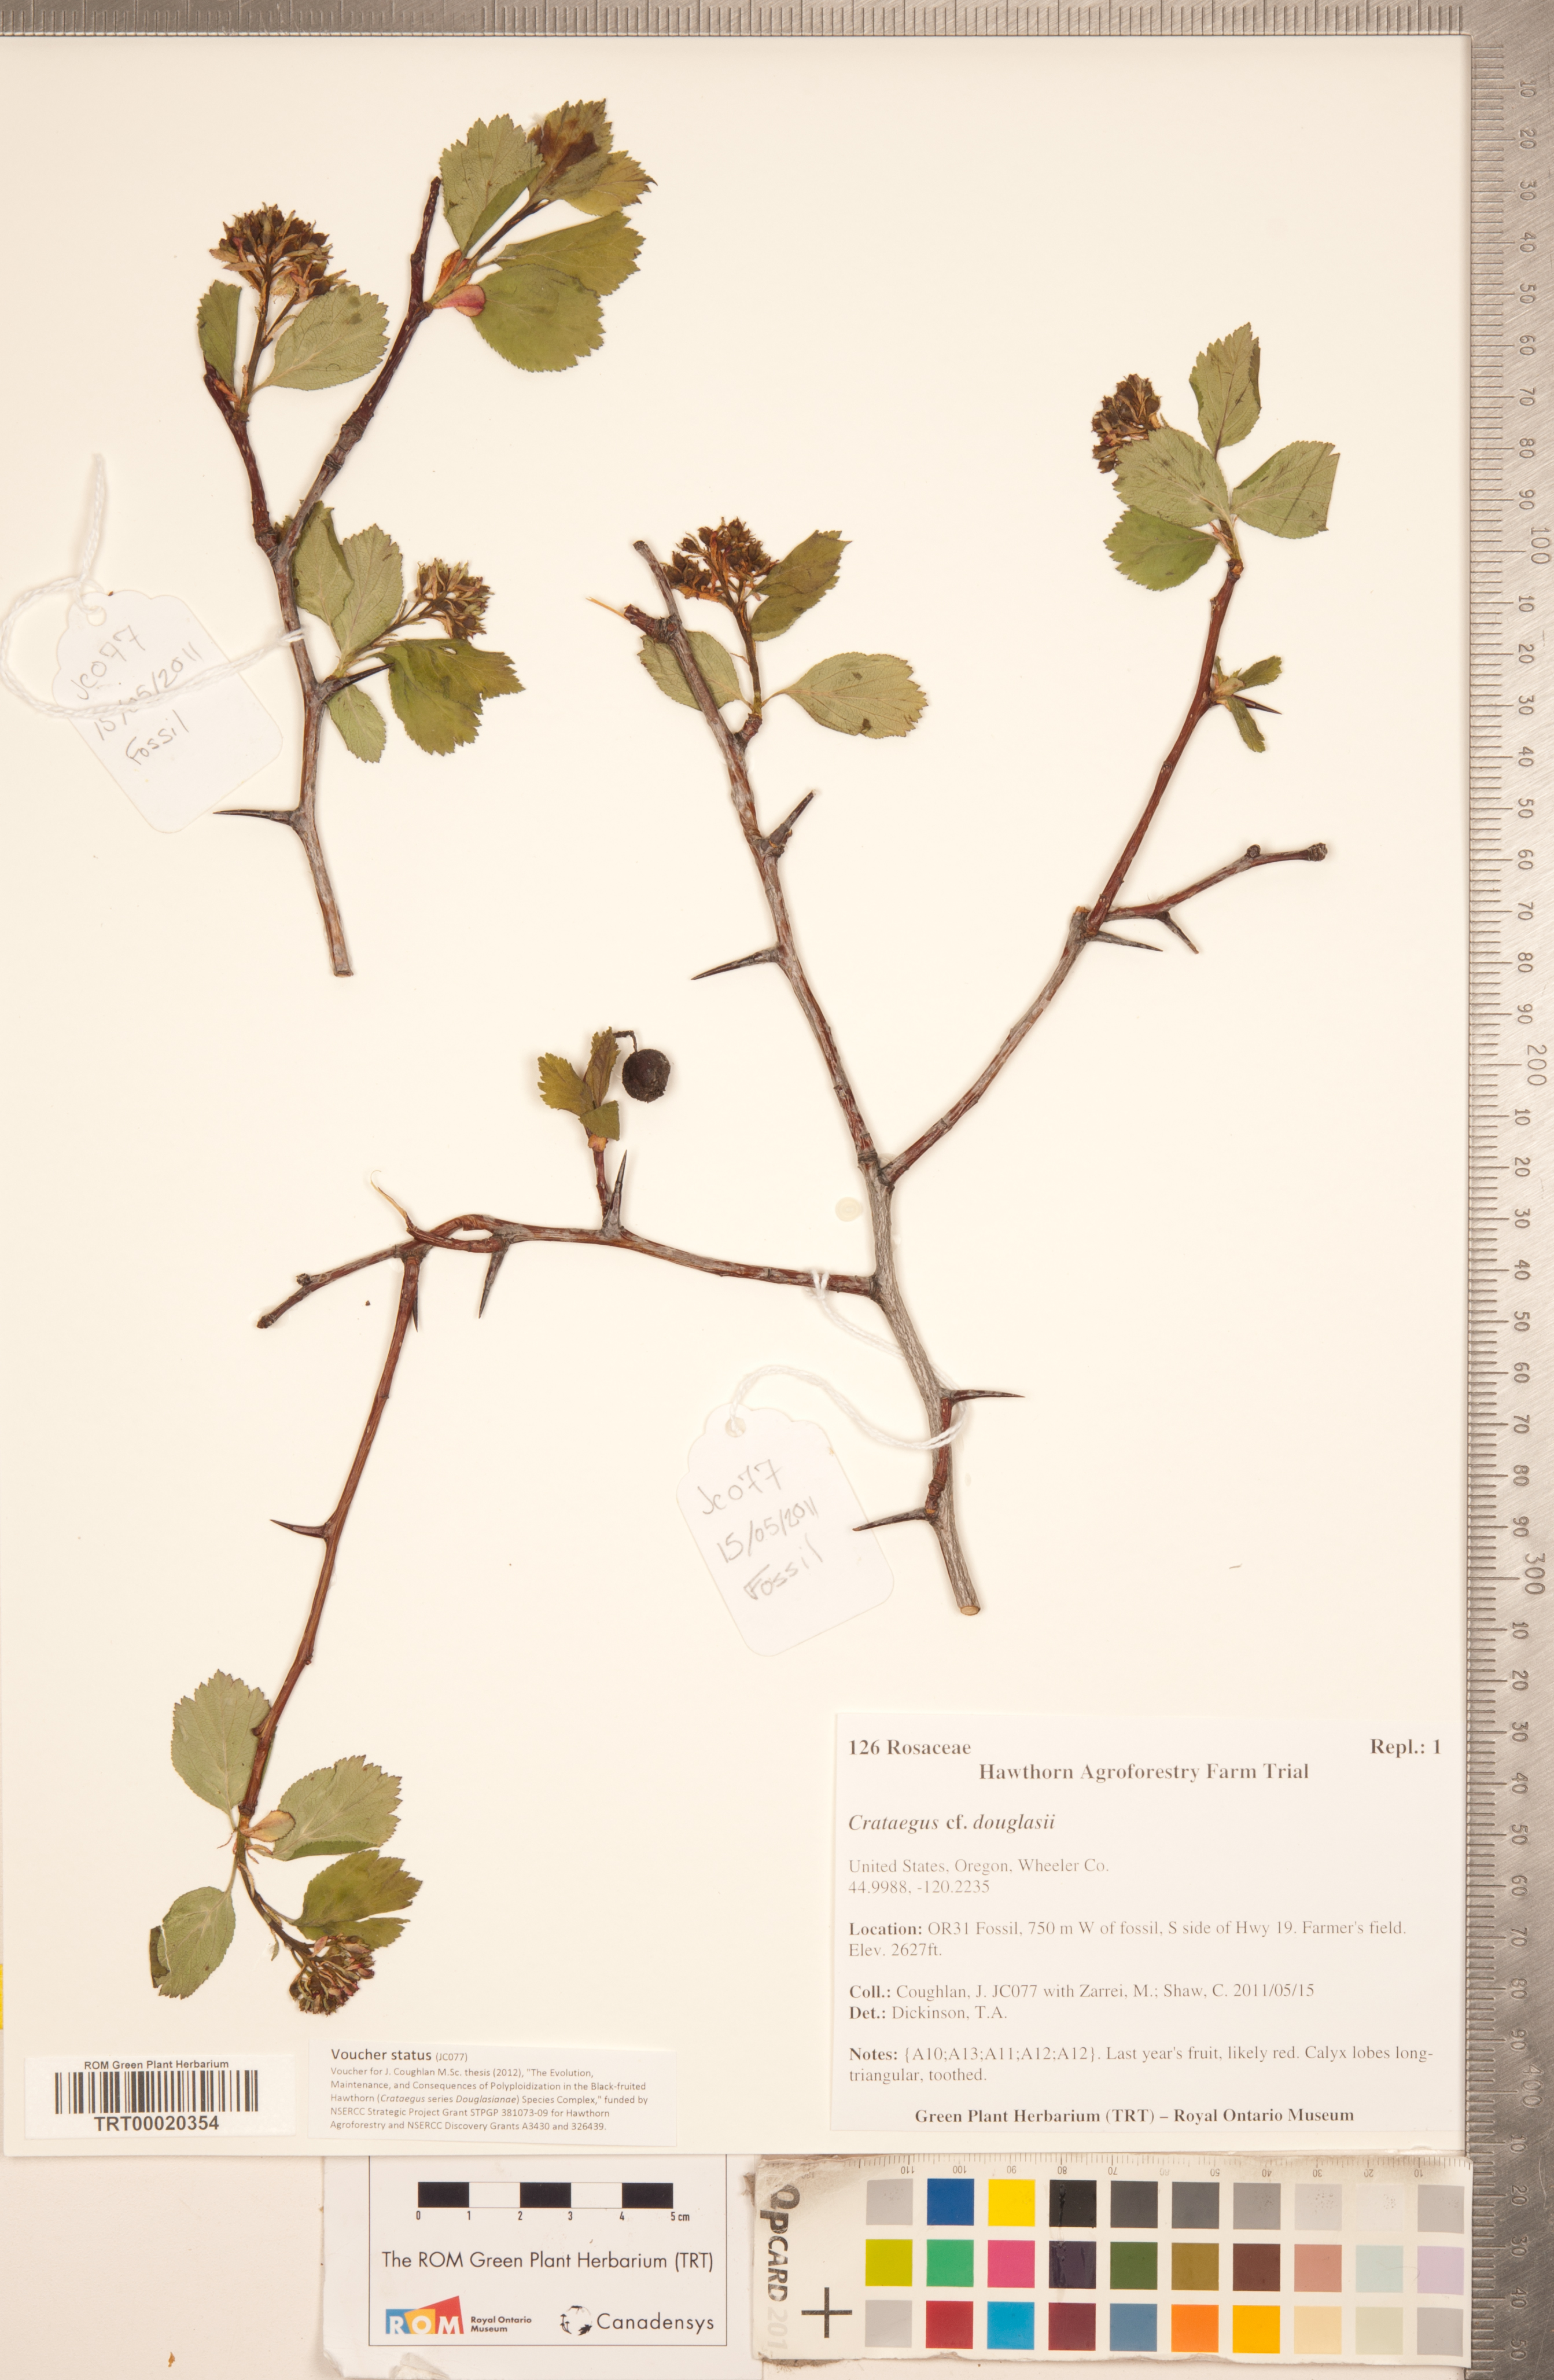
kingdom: Plantae
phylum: Tracheophyta
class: Magnoliopsida
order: Rosales
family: Rosaceae
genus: Crataegus
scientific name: Crataegus douglasii
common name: Black hawthorn
